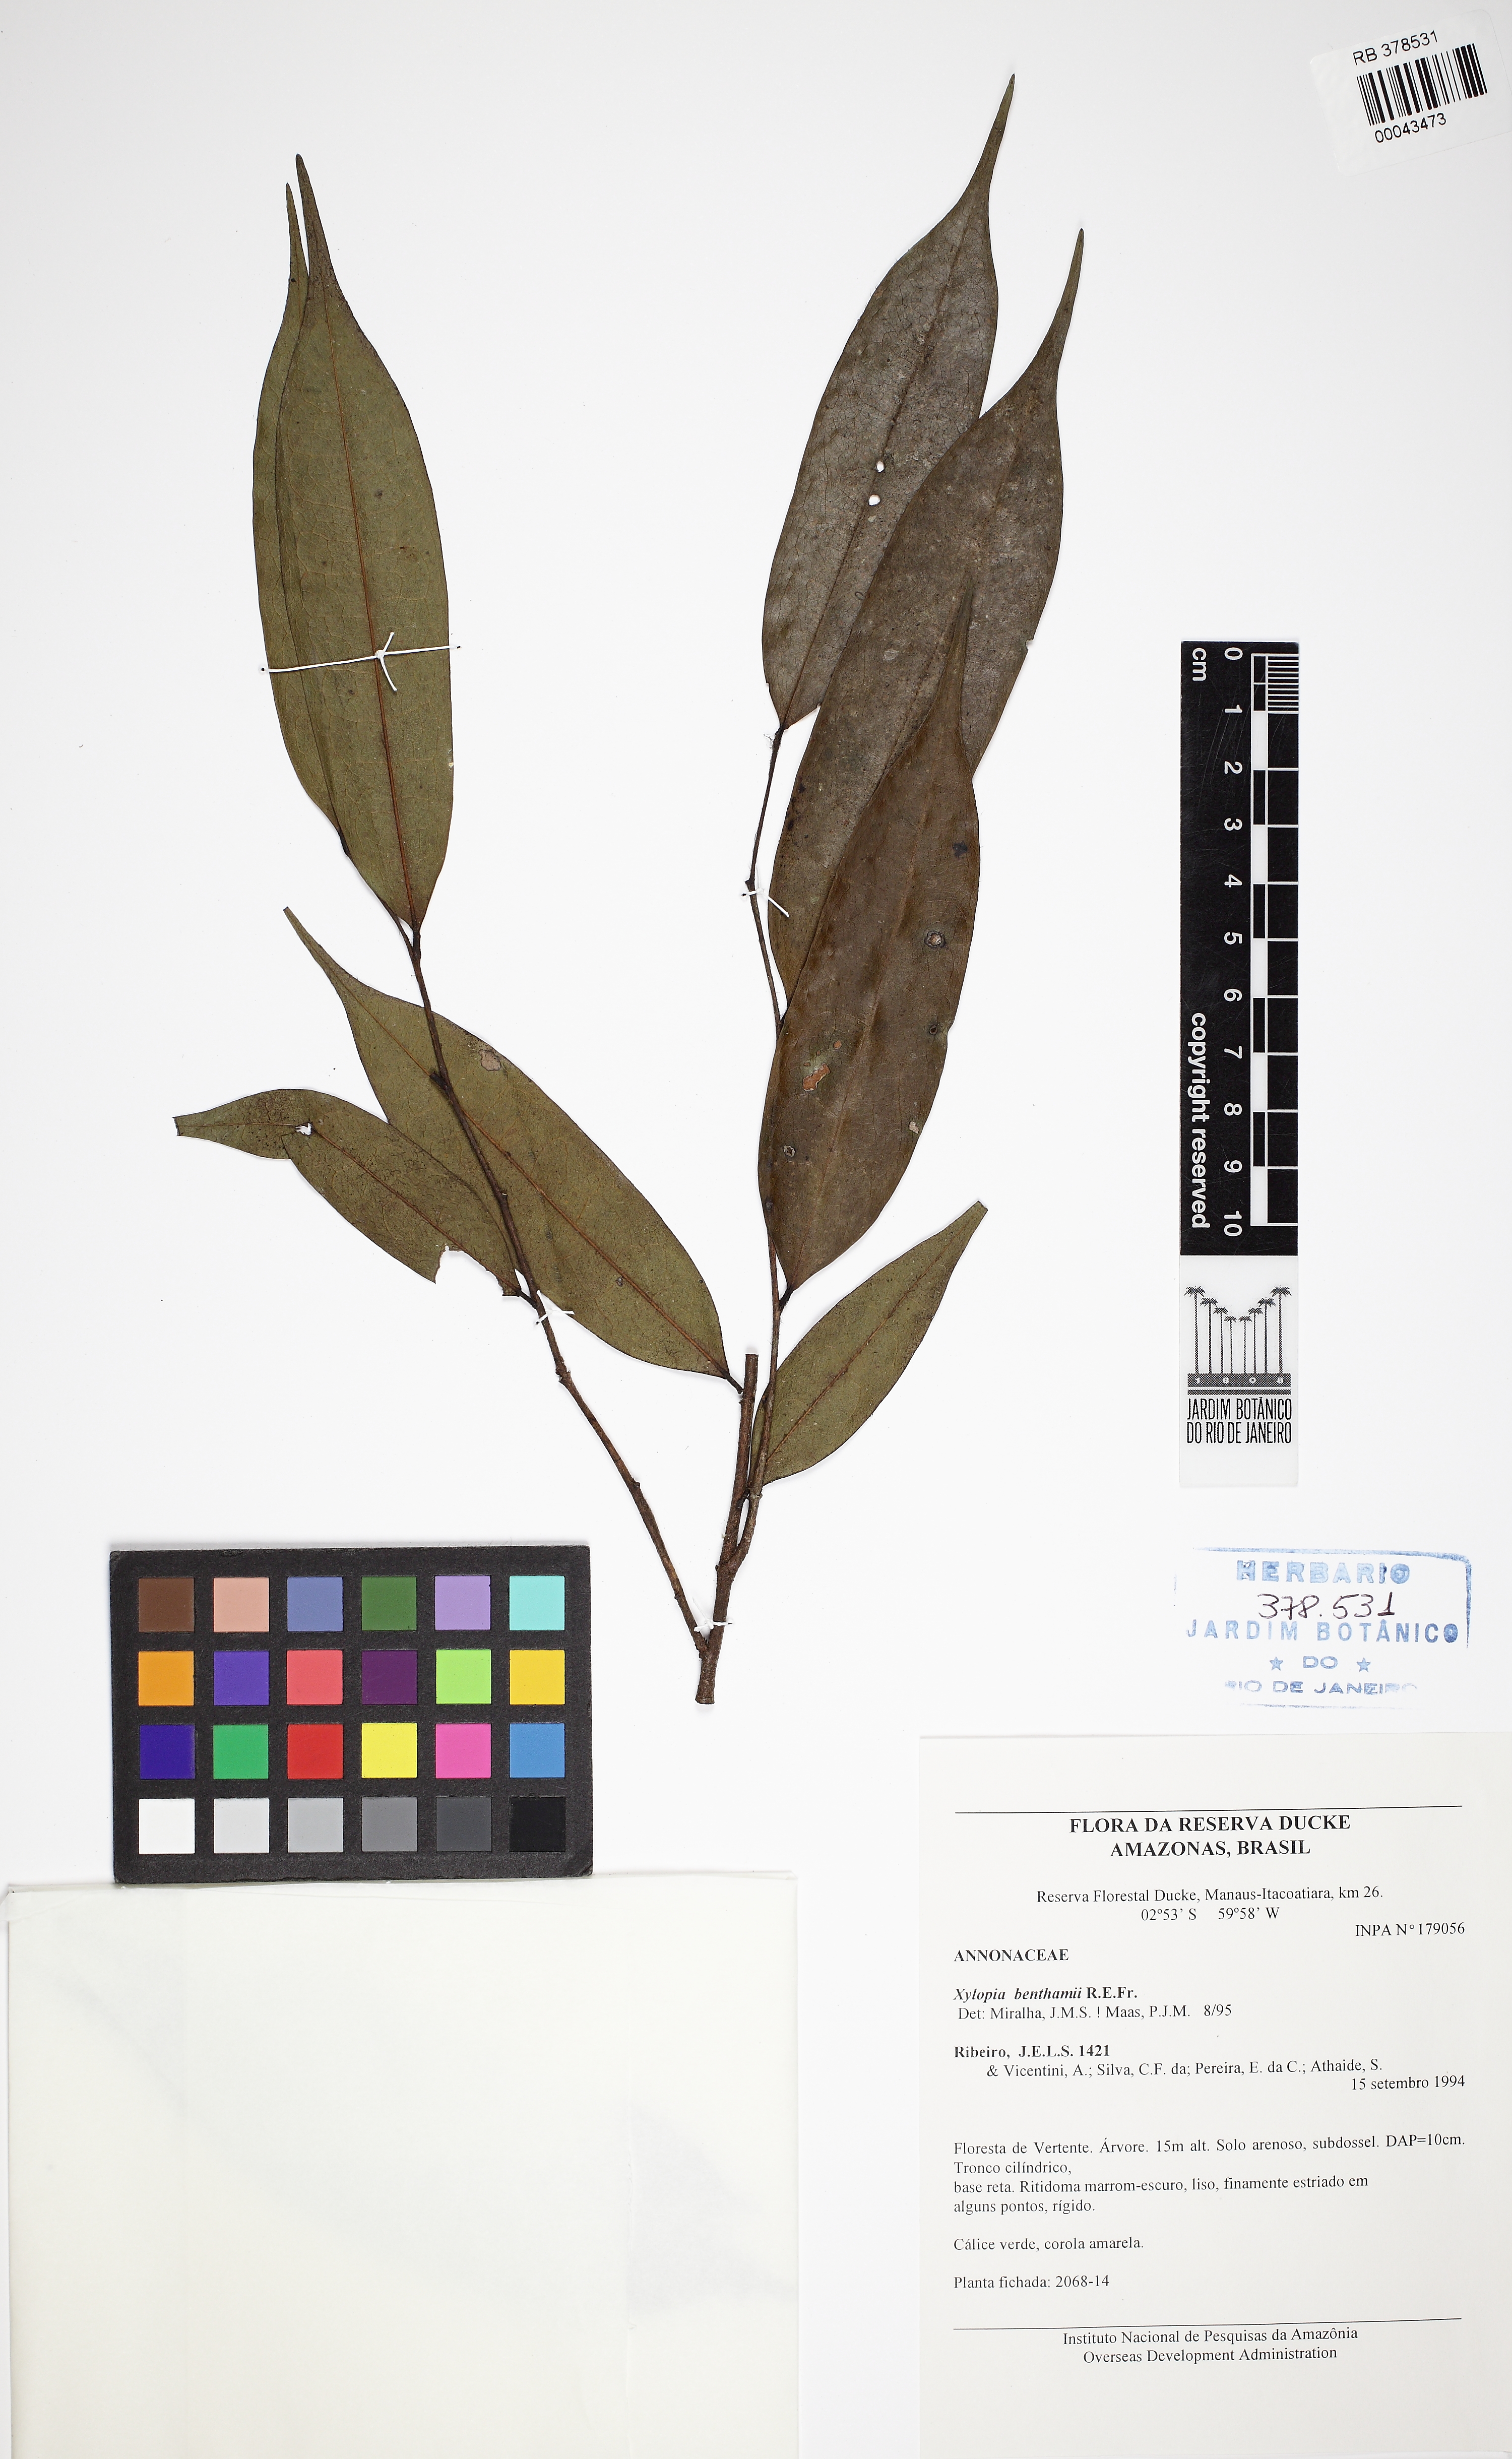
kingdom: Plantae
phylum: Tracheophyta
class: Magnoliopsida
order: Magnoliales
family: Annonaceae
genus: Xylopia
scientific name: Xylopia benthamii
